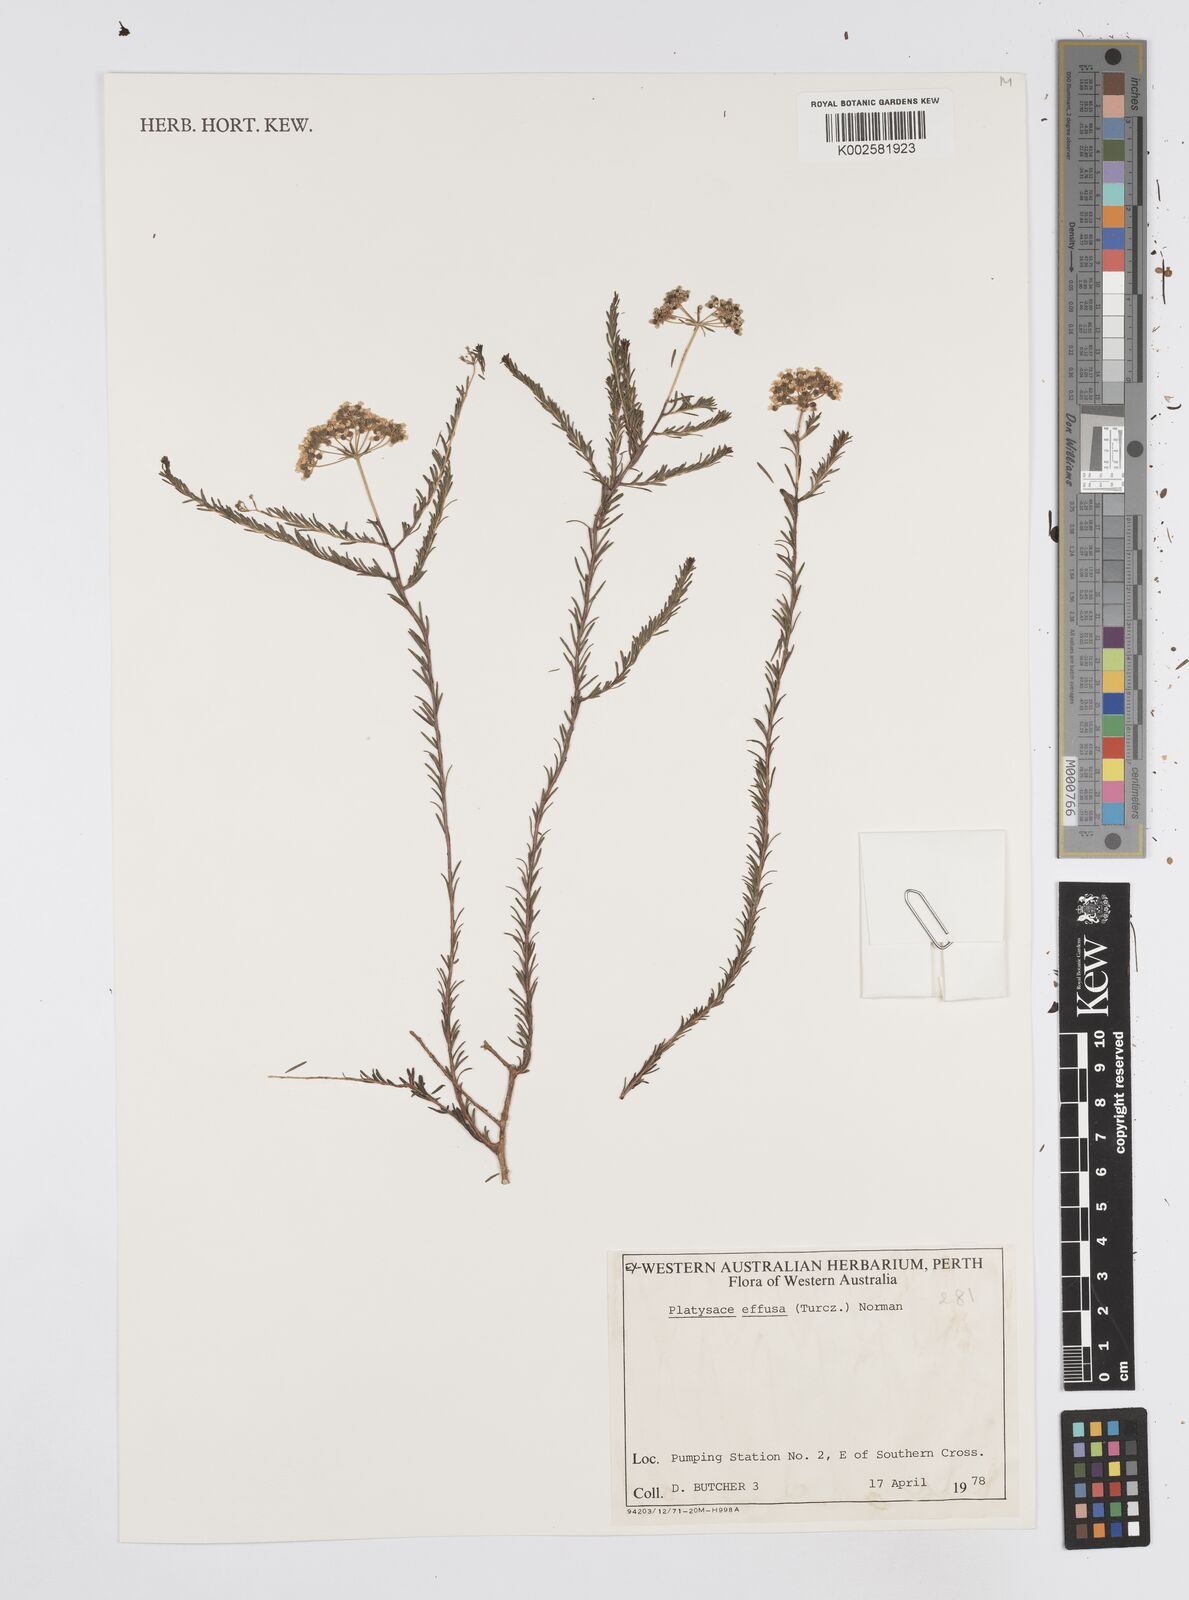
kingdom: Plantae
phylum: Tracheophyta
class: Magnoliopsida
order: Apiales
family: Apiaceae
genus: Platysace
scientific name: Platysace effusa
